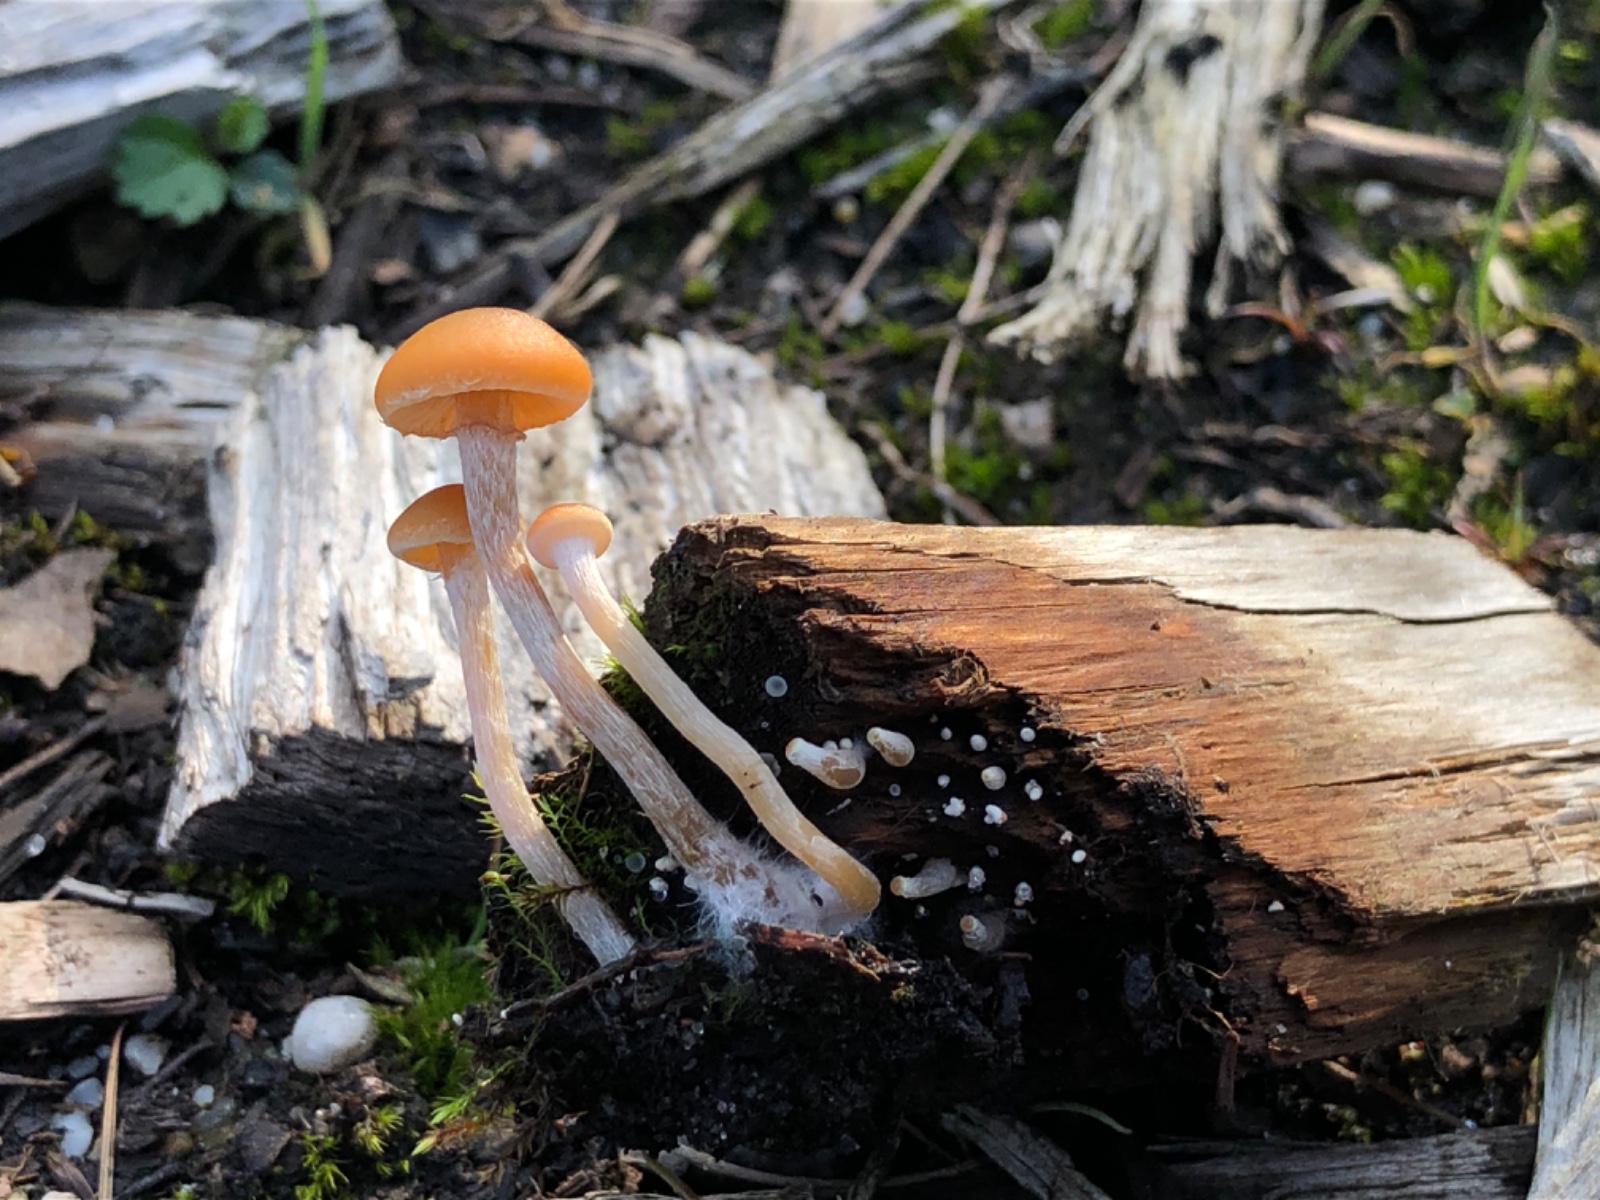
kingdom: Fungi
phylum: Basidiomycota
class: Agaricomycetes
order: Agaricales
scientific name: Agaricales
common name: champignonordenen
